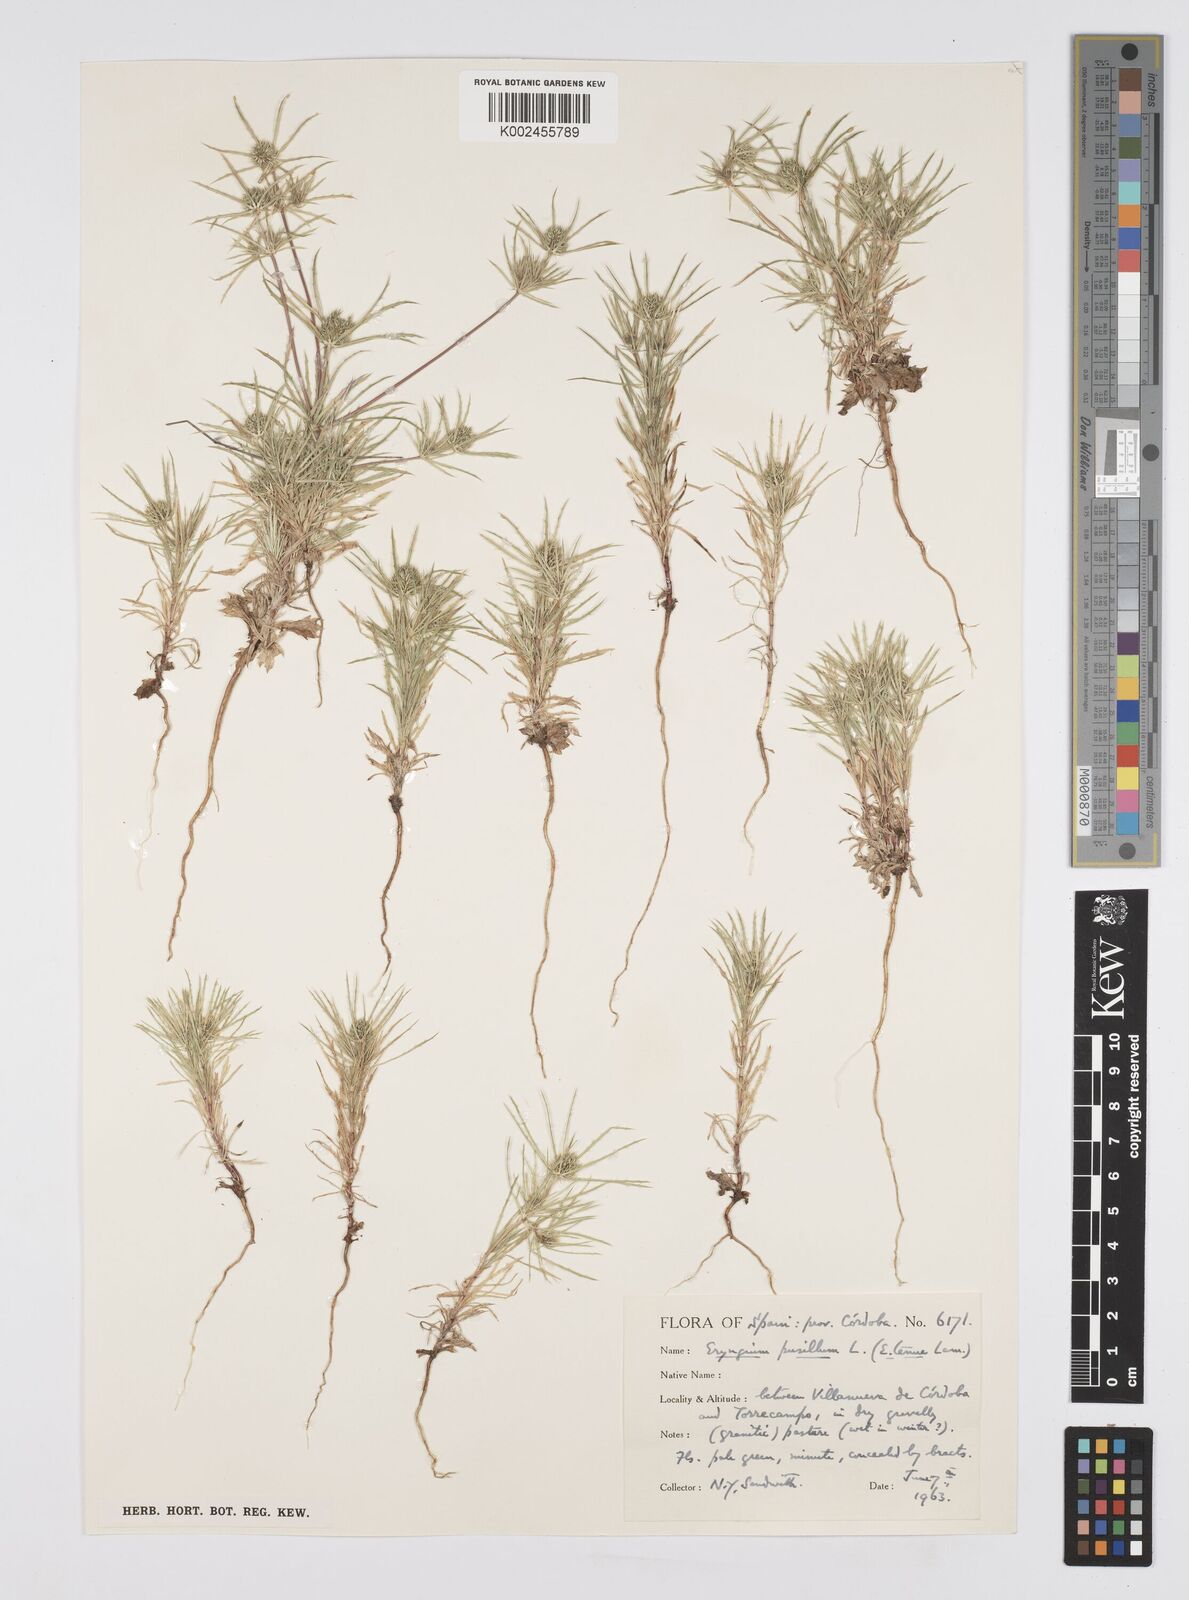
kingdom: Plantae
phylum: Tracheophyta
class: Magnoliopsida
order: Apiales
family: Apiaceae
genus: Eryngium
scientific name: Eryngium
